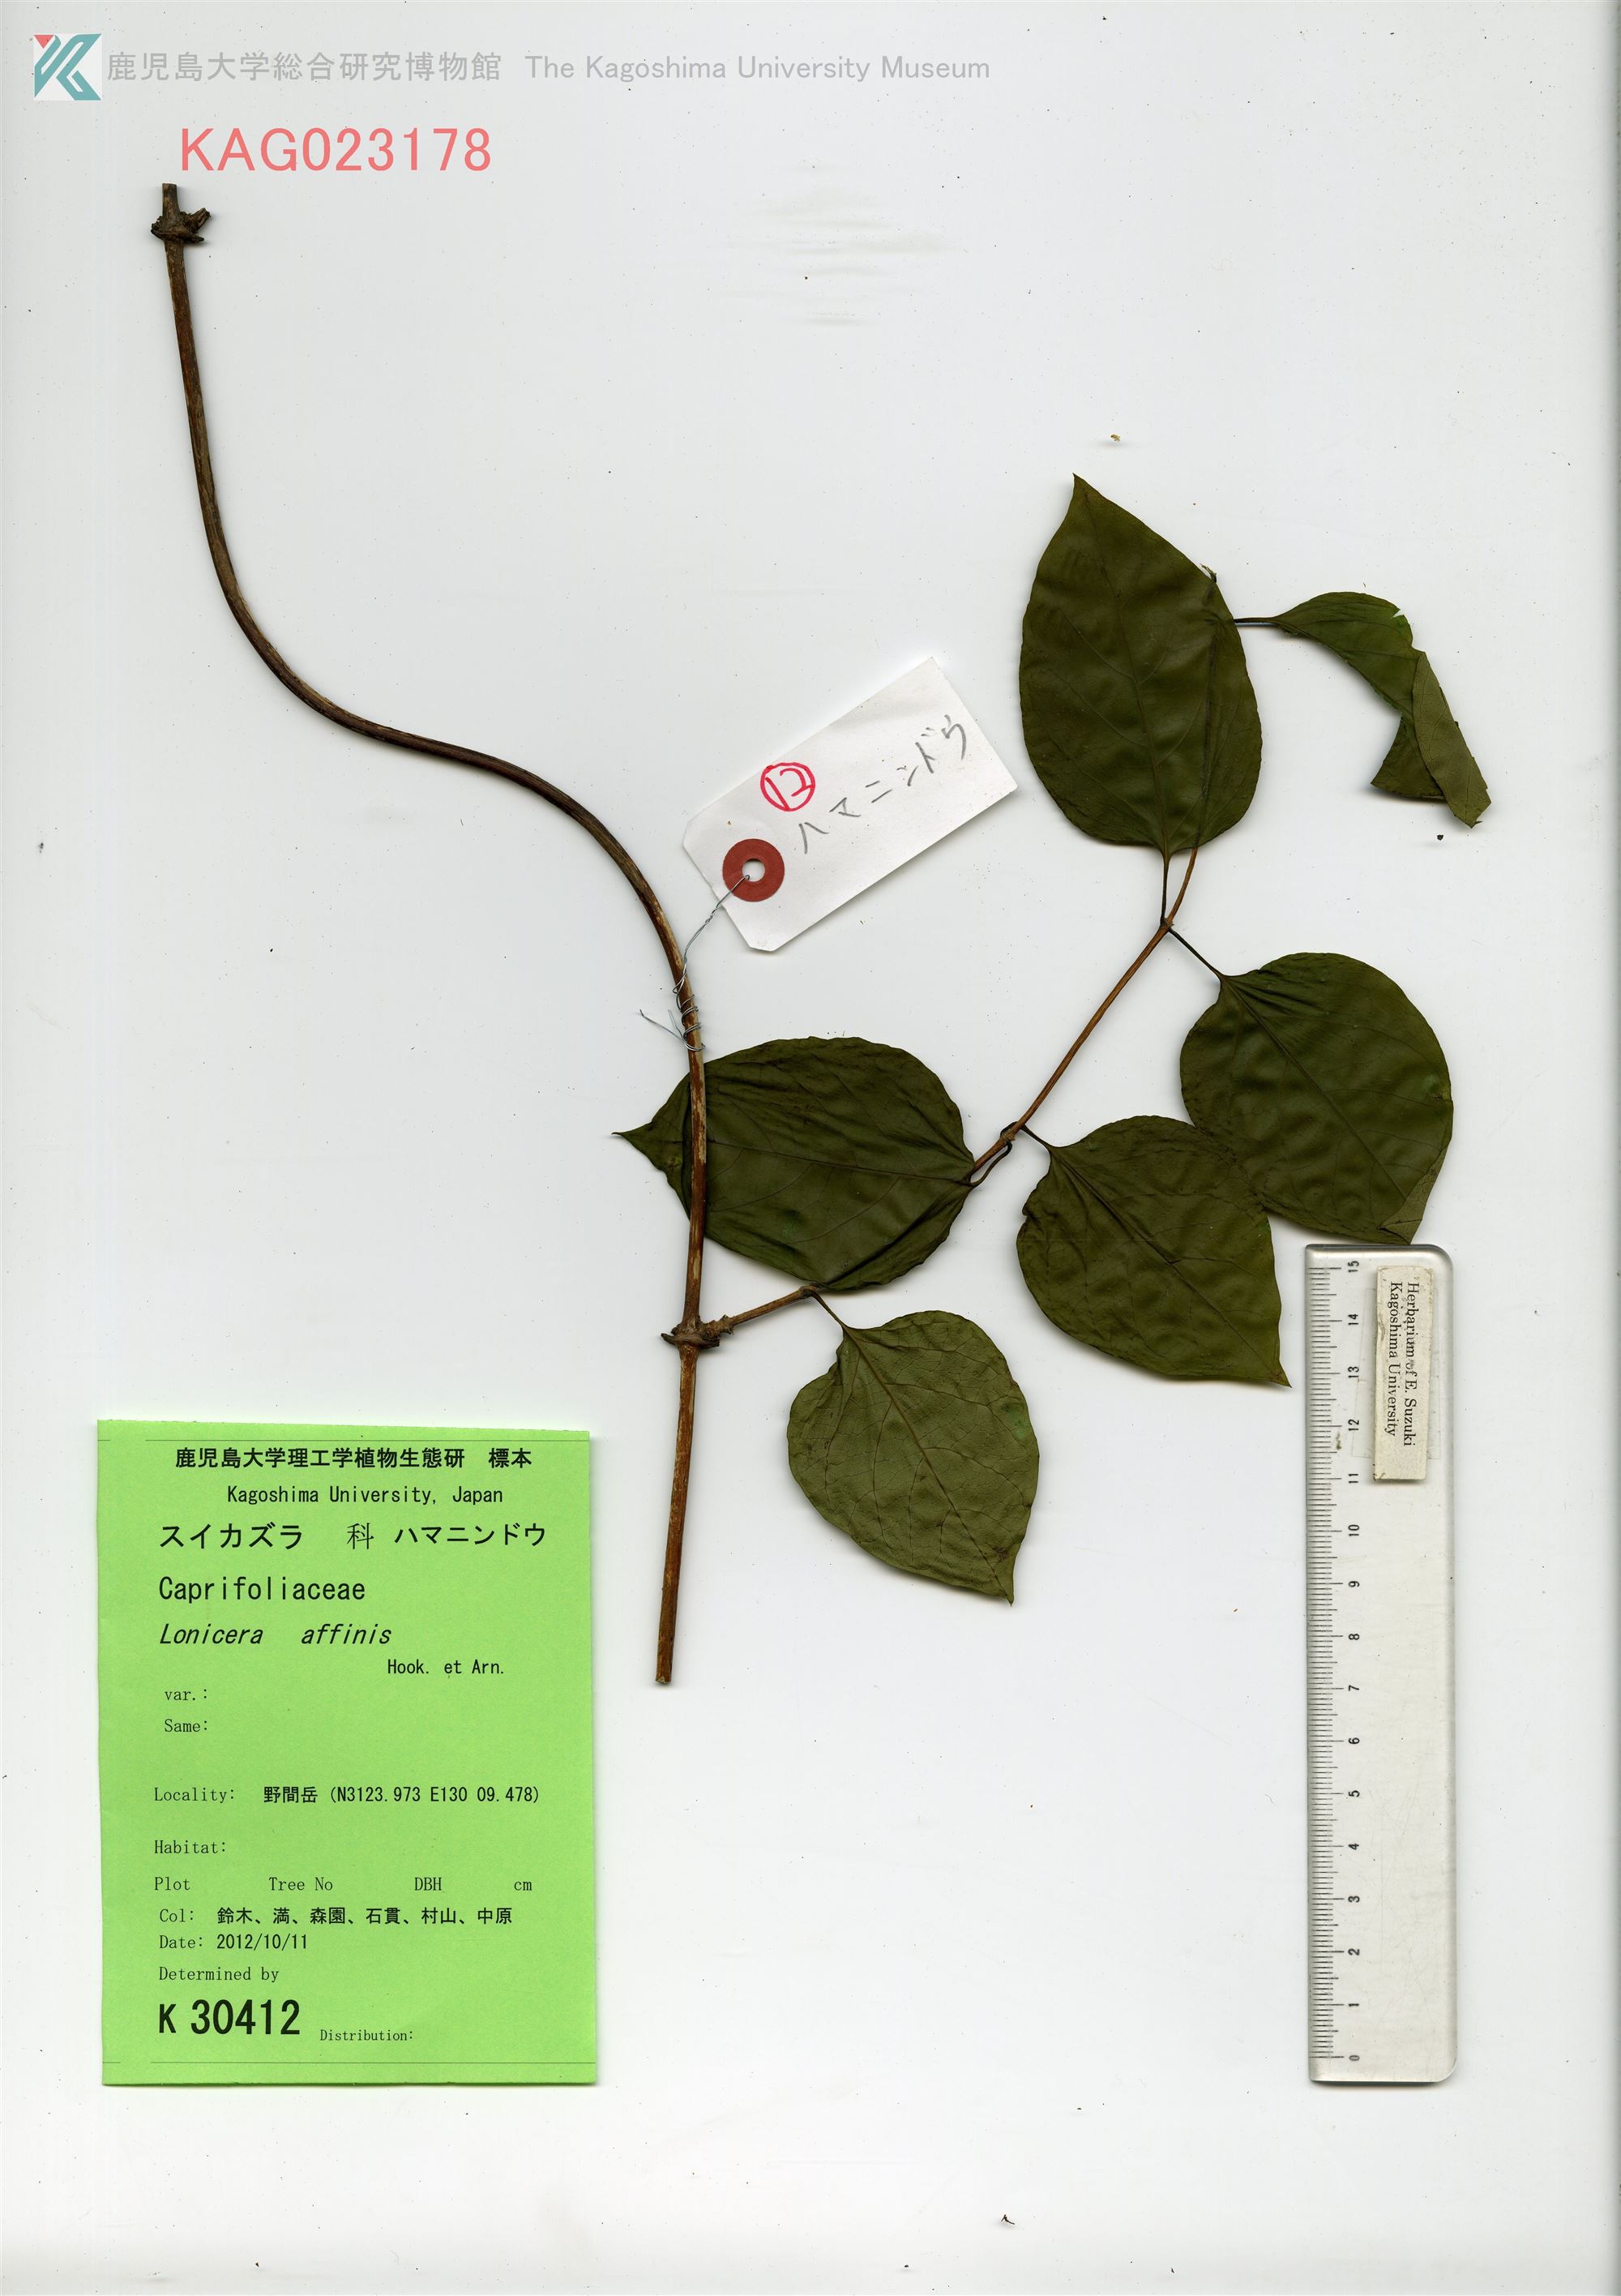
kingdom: Plantae
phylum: Tracheophyta
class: Magnoliopsida
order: Dipsacales
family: Caprifoliaceae
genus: Lonicera
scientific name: Lonicera affinis
